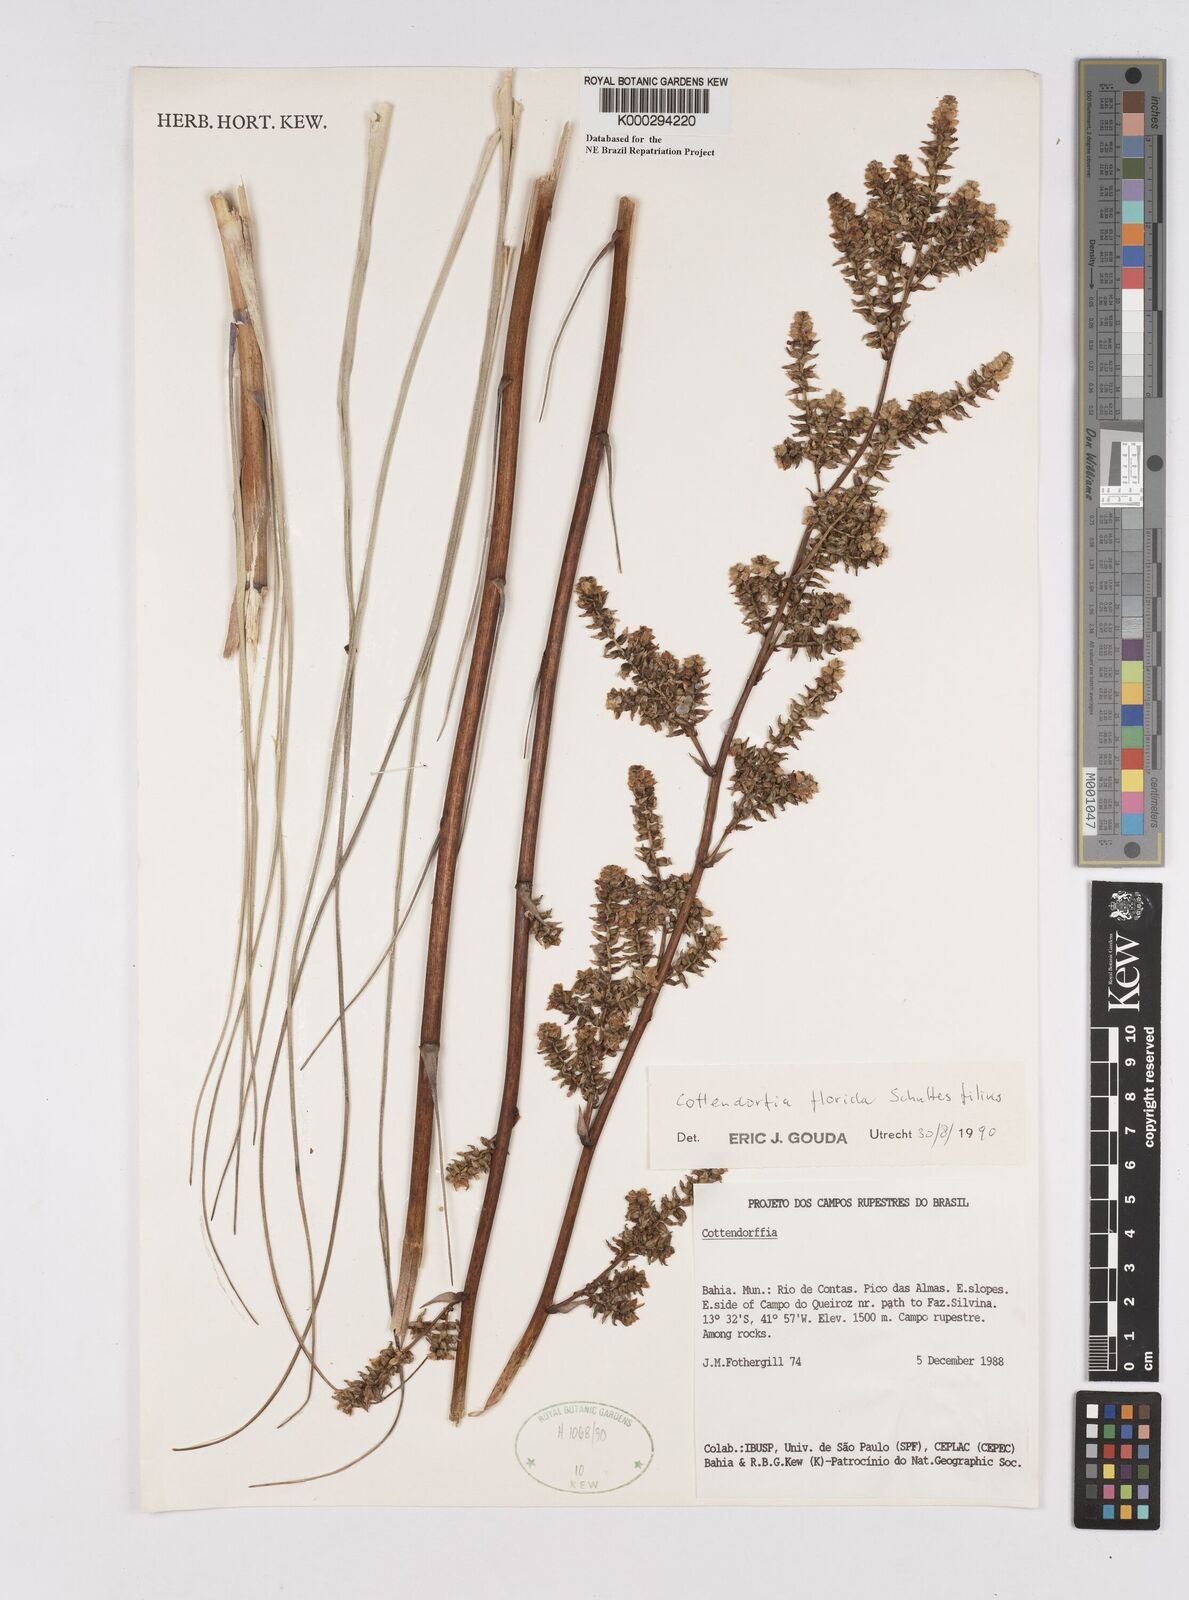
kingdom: Plantae
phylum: Tracheophyta
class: Liliopsida
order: Poales
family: Bromeliaceae
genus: Cottendorfia
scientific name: Cottendorfia florida
